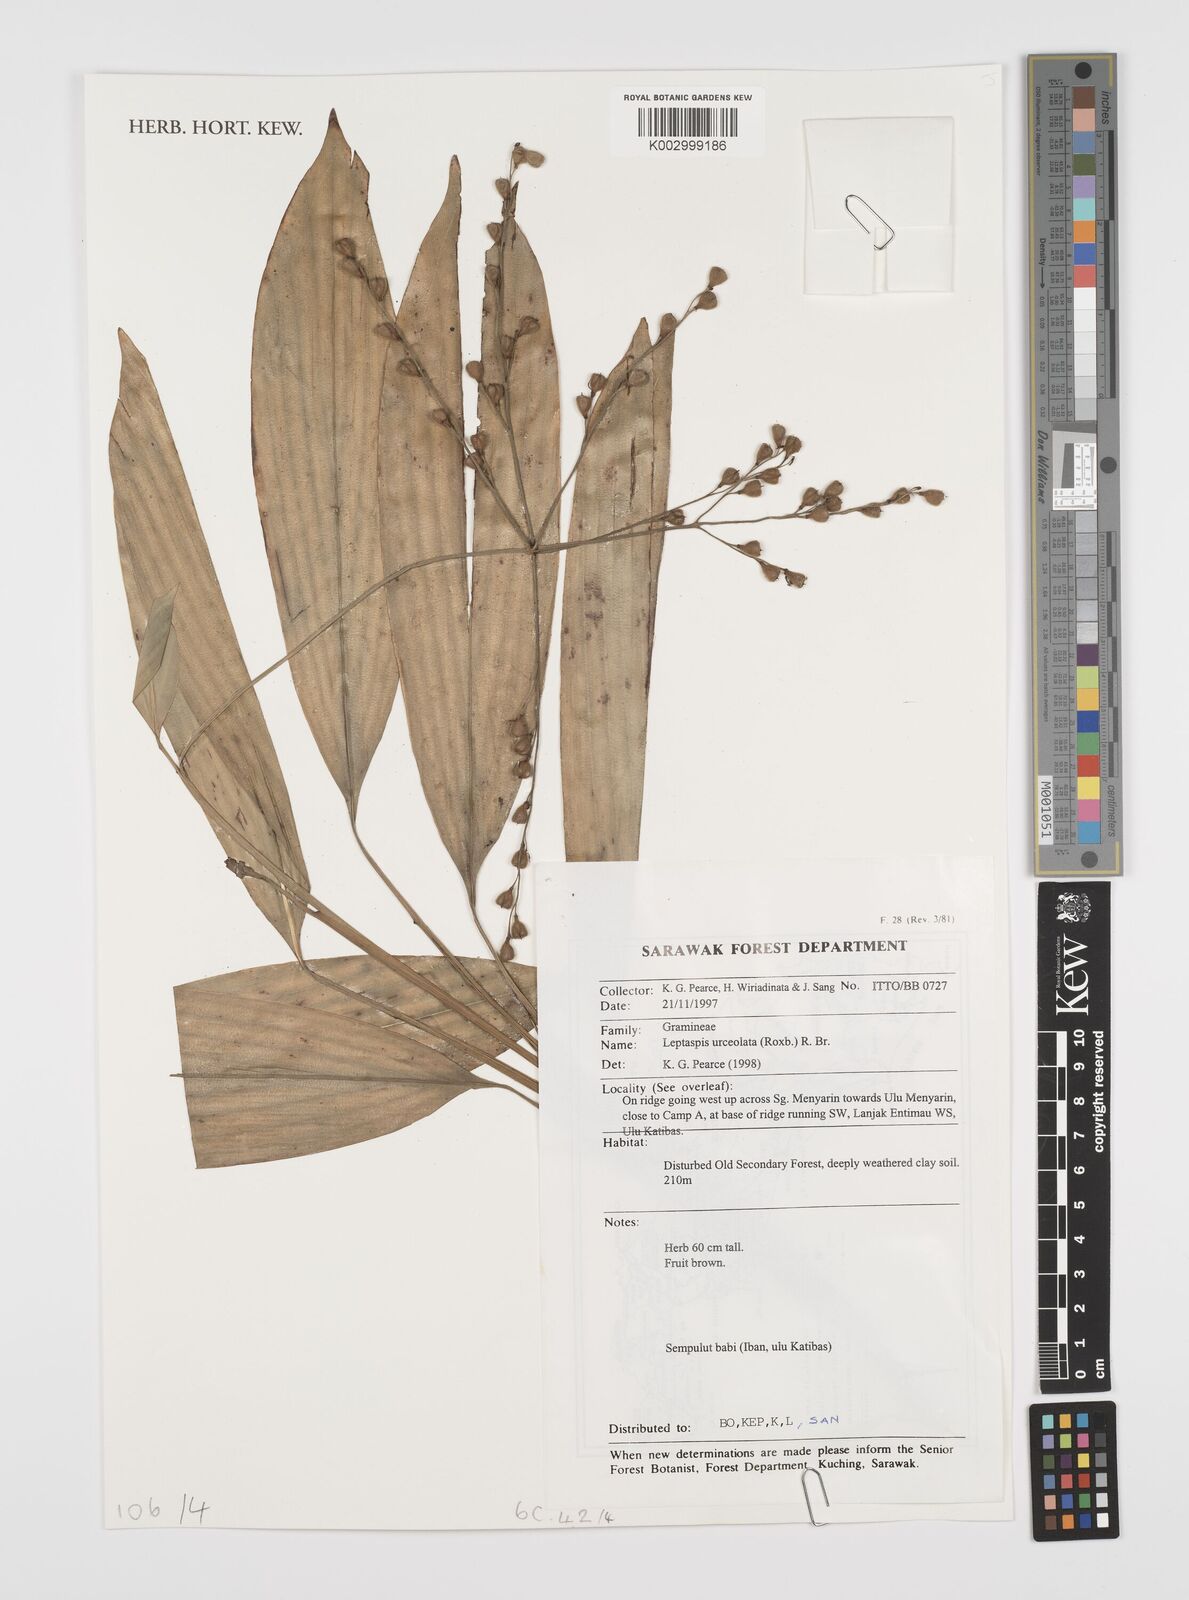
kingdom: Plantae
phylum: Tracheophyta
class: Liliopsida
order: Poales
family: Poaceae
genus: Scrotochloa
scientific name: Scrotochloa urceolata
